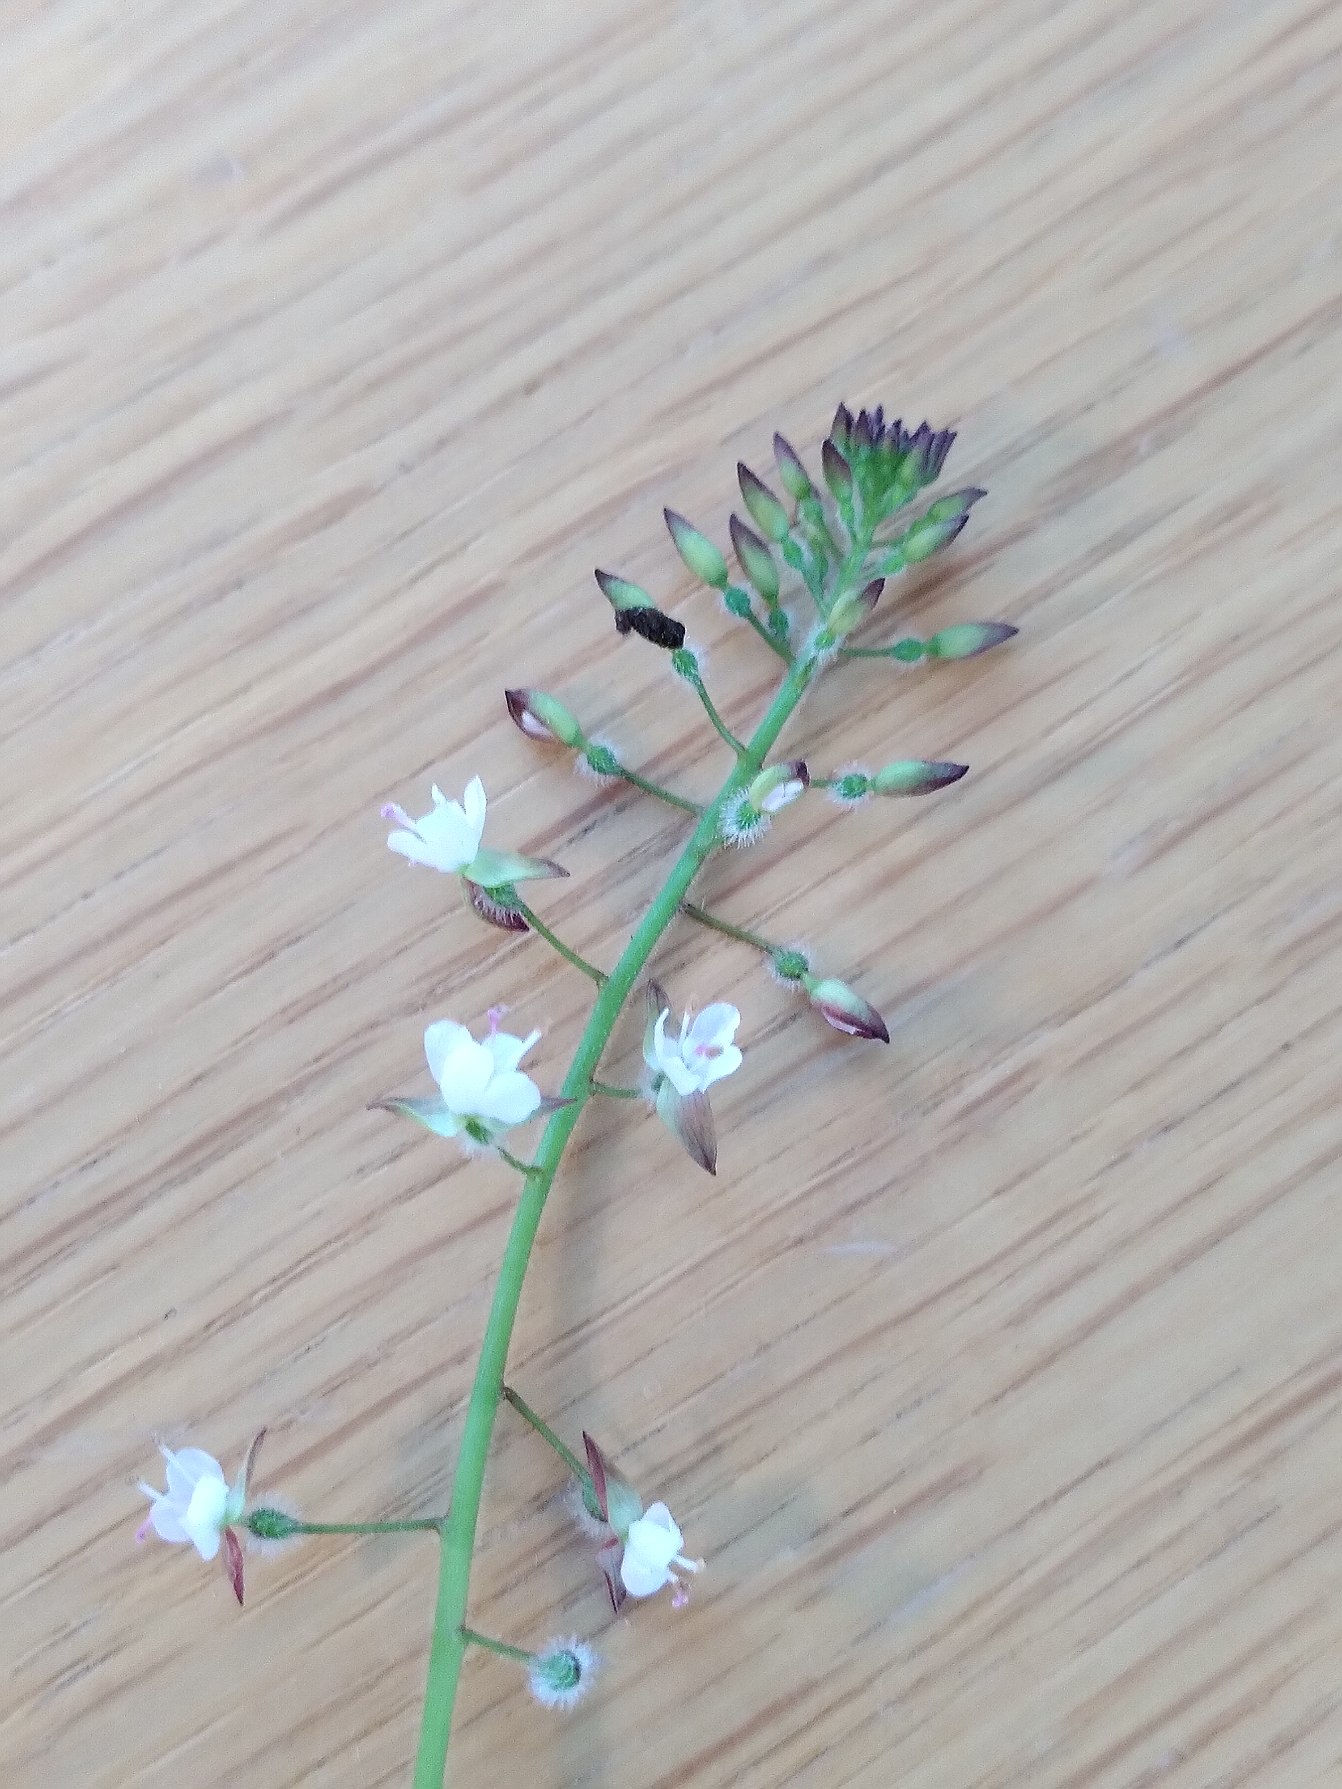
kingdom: Plantae
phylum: Tracheophyta
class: Magnoliopsida
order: Myrtales
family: Onagraceae
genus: Circaea
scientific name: Circaea lutetiana
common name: Dunet steffensurt
